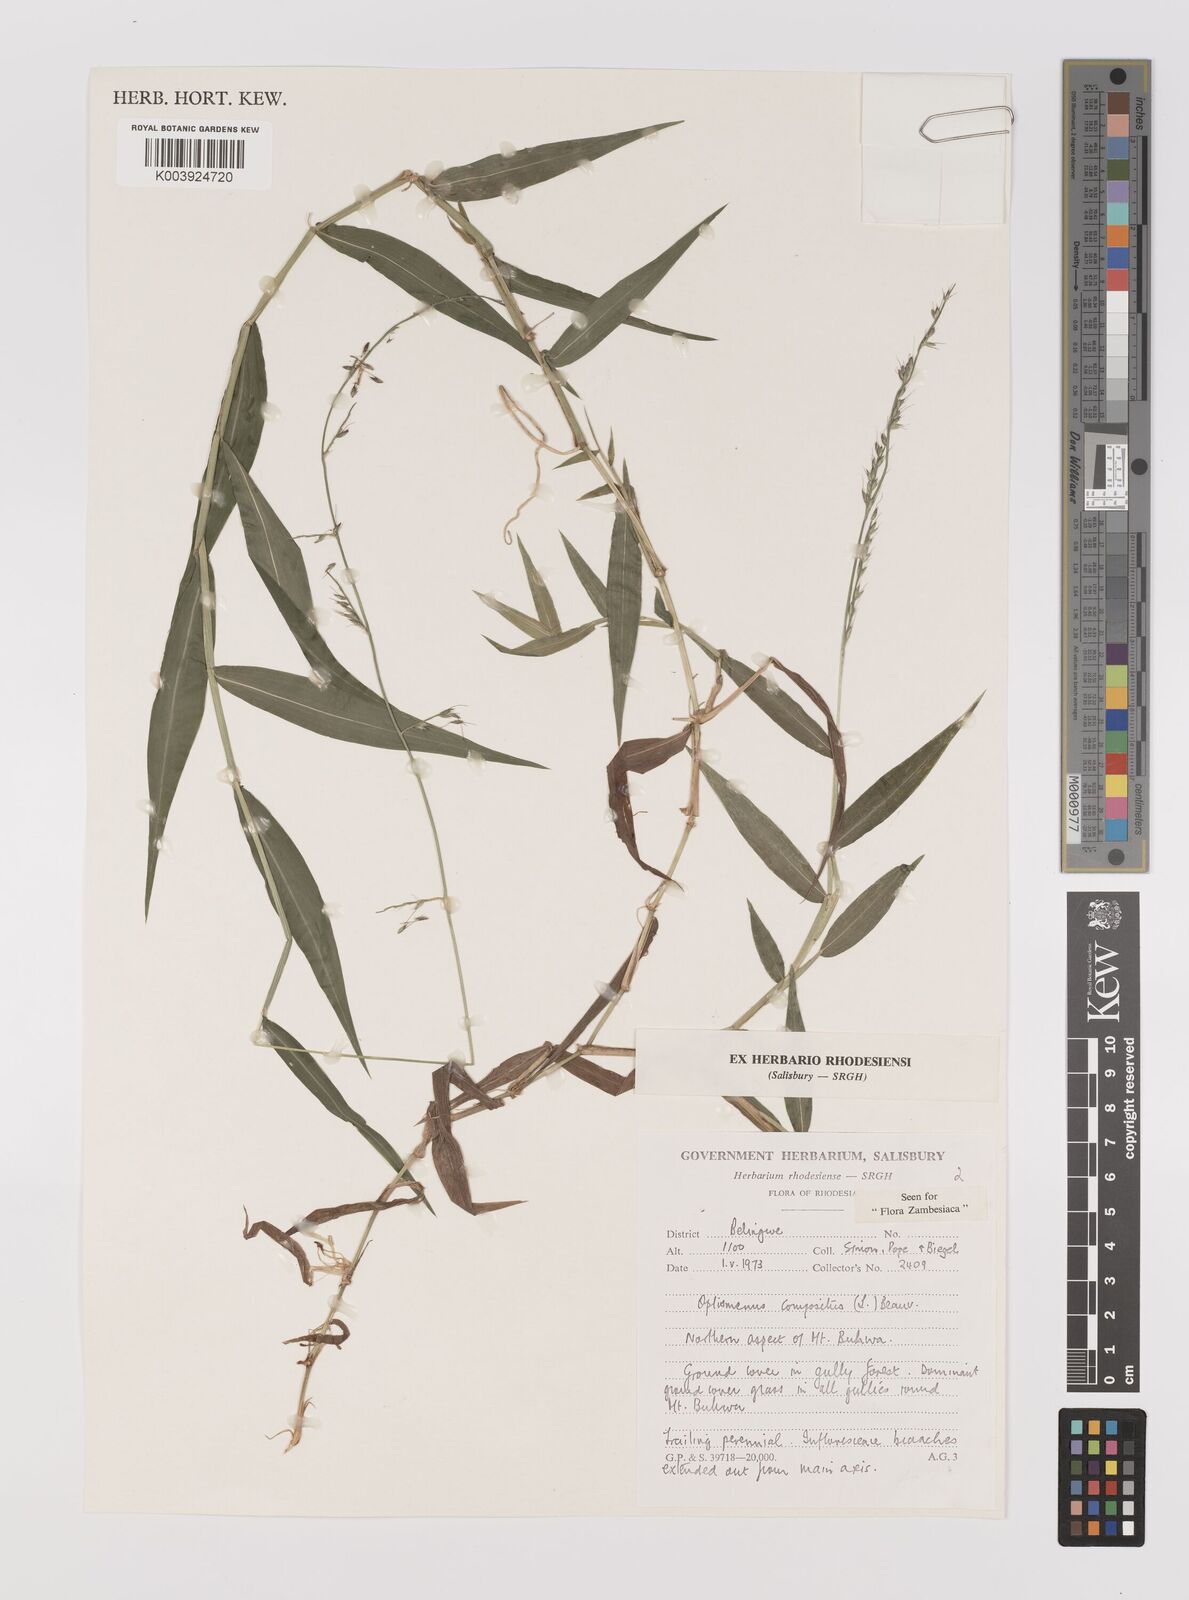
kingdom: Plantae
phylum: Tracheophyta
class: Liliopsida
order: Poales
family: Poaceae
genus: Oplismenus
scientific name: Oplismenus compositus
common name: Running mountain grass
